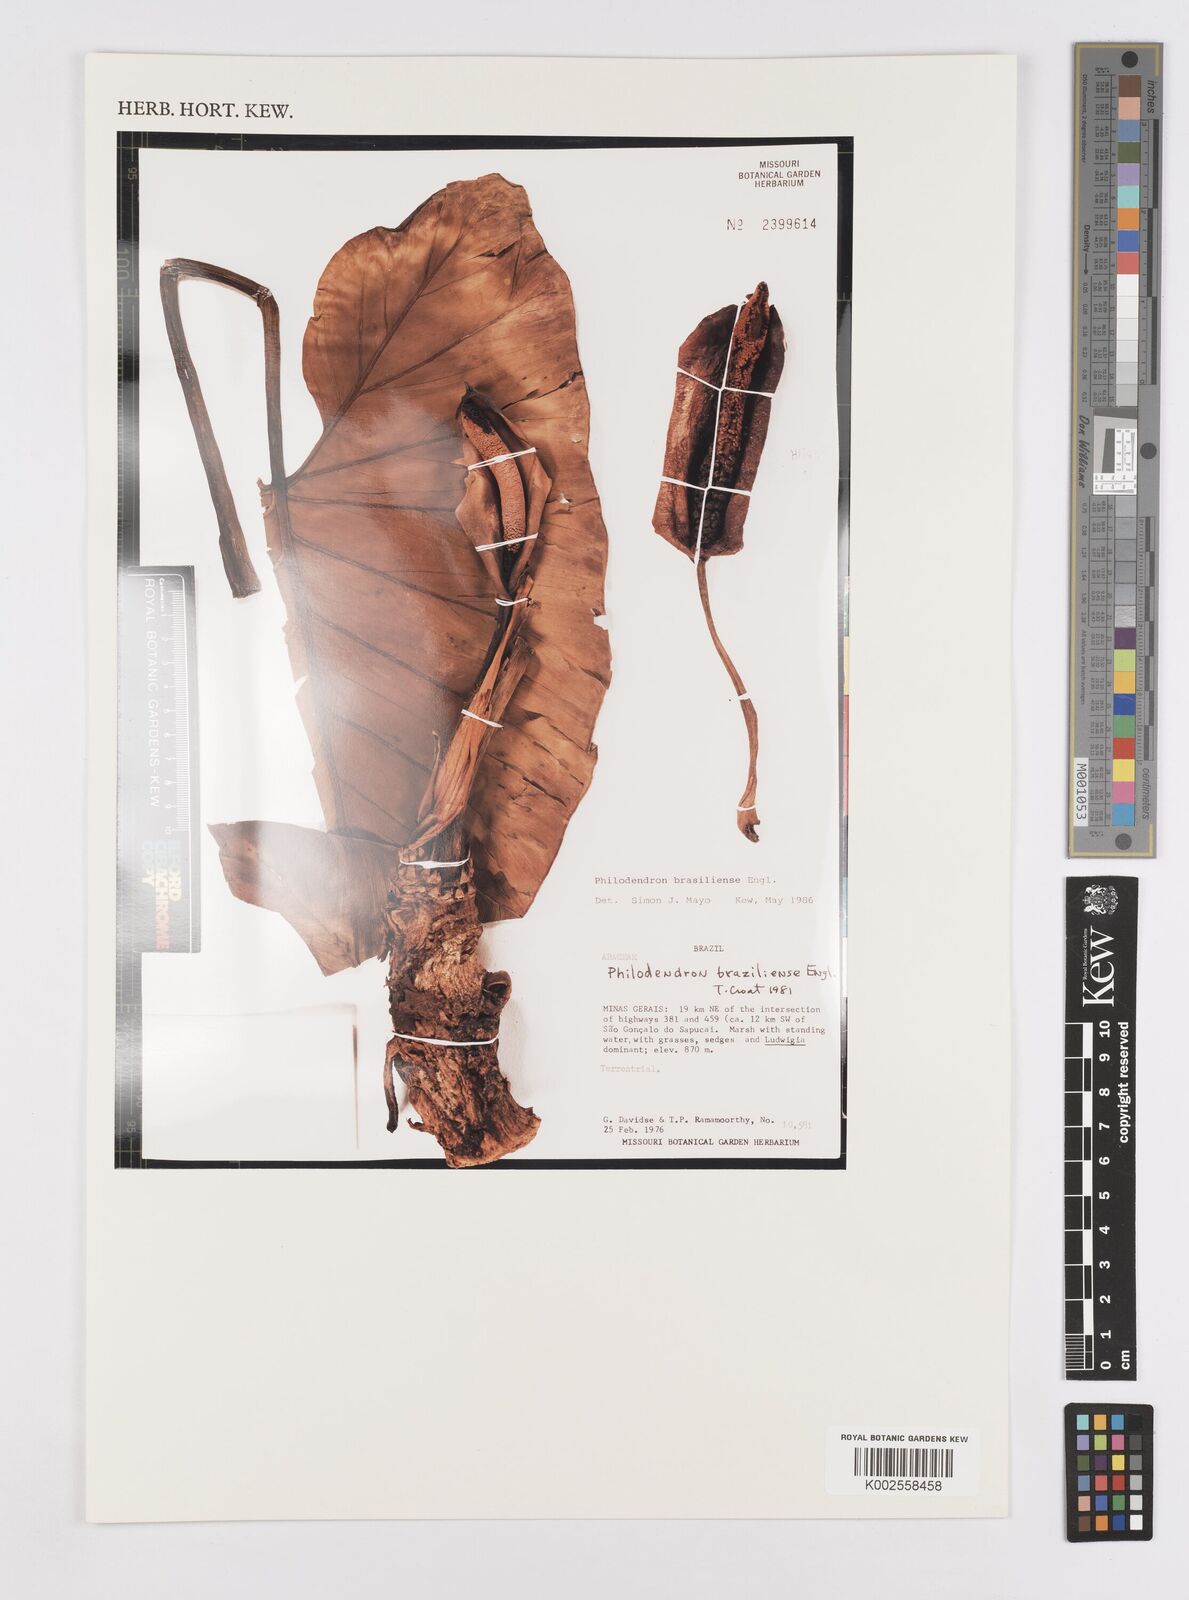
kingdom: Plantae
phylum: Tracheophyta
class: Liliopsida
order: Alismatales
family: Araceae
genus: Thaumatophyllum
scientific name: Thaumatophyllum brasiliense
